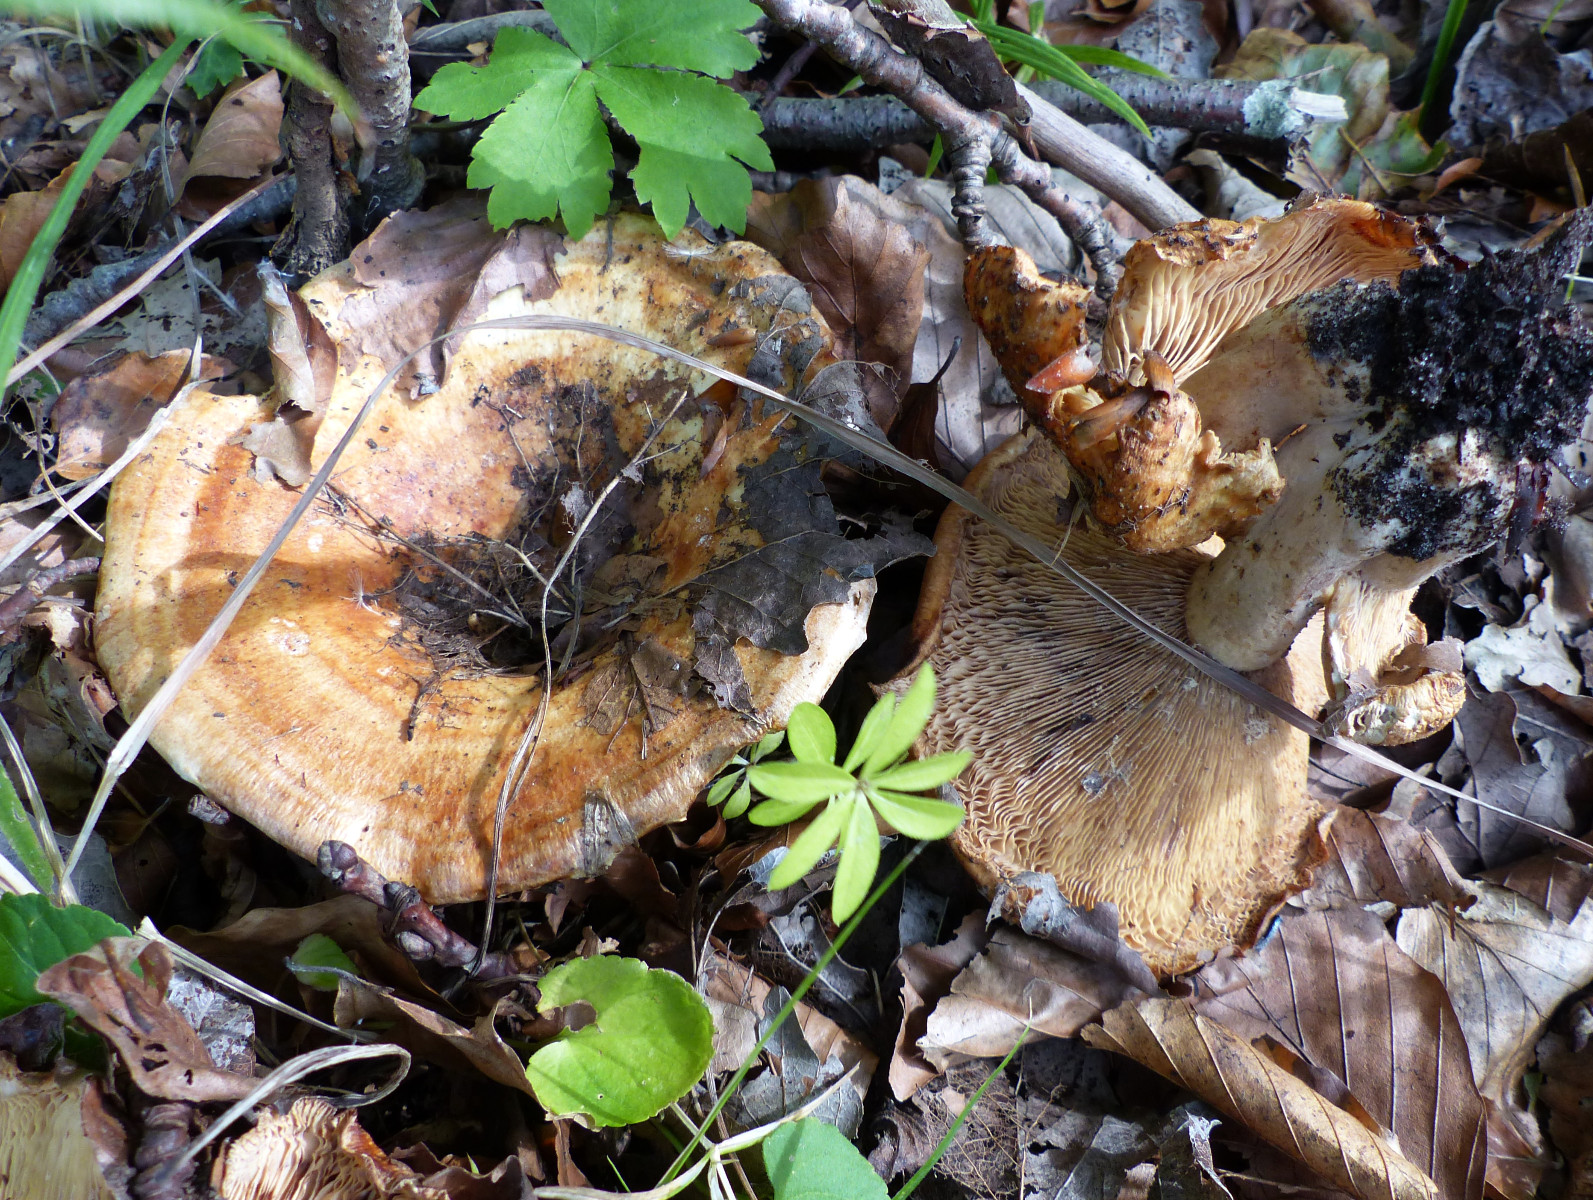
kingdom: Fungi
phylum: Basidiomycota
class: Agaricomycetes
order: Russulales
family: Russulaceae
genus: Lactarius
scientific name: Lactarius evosmus
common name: bæltet mælkehat
